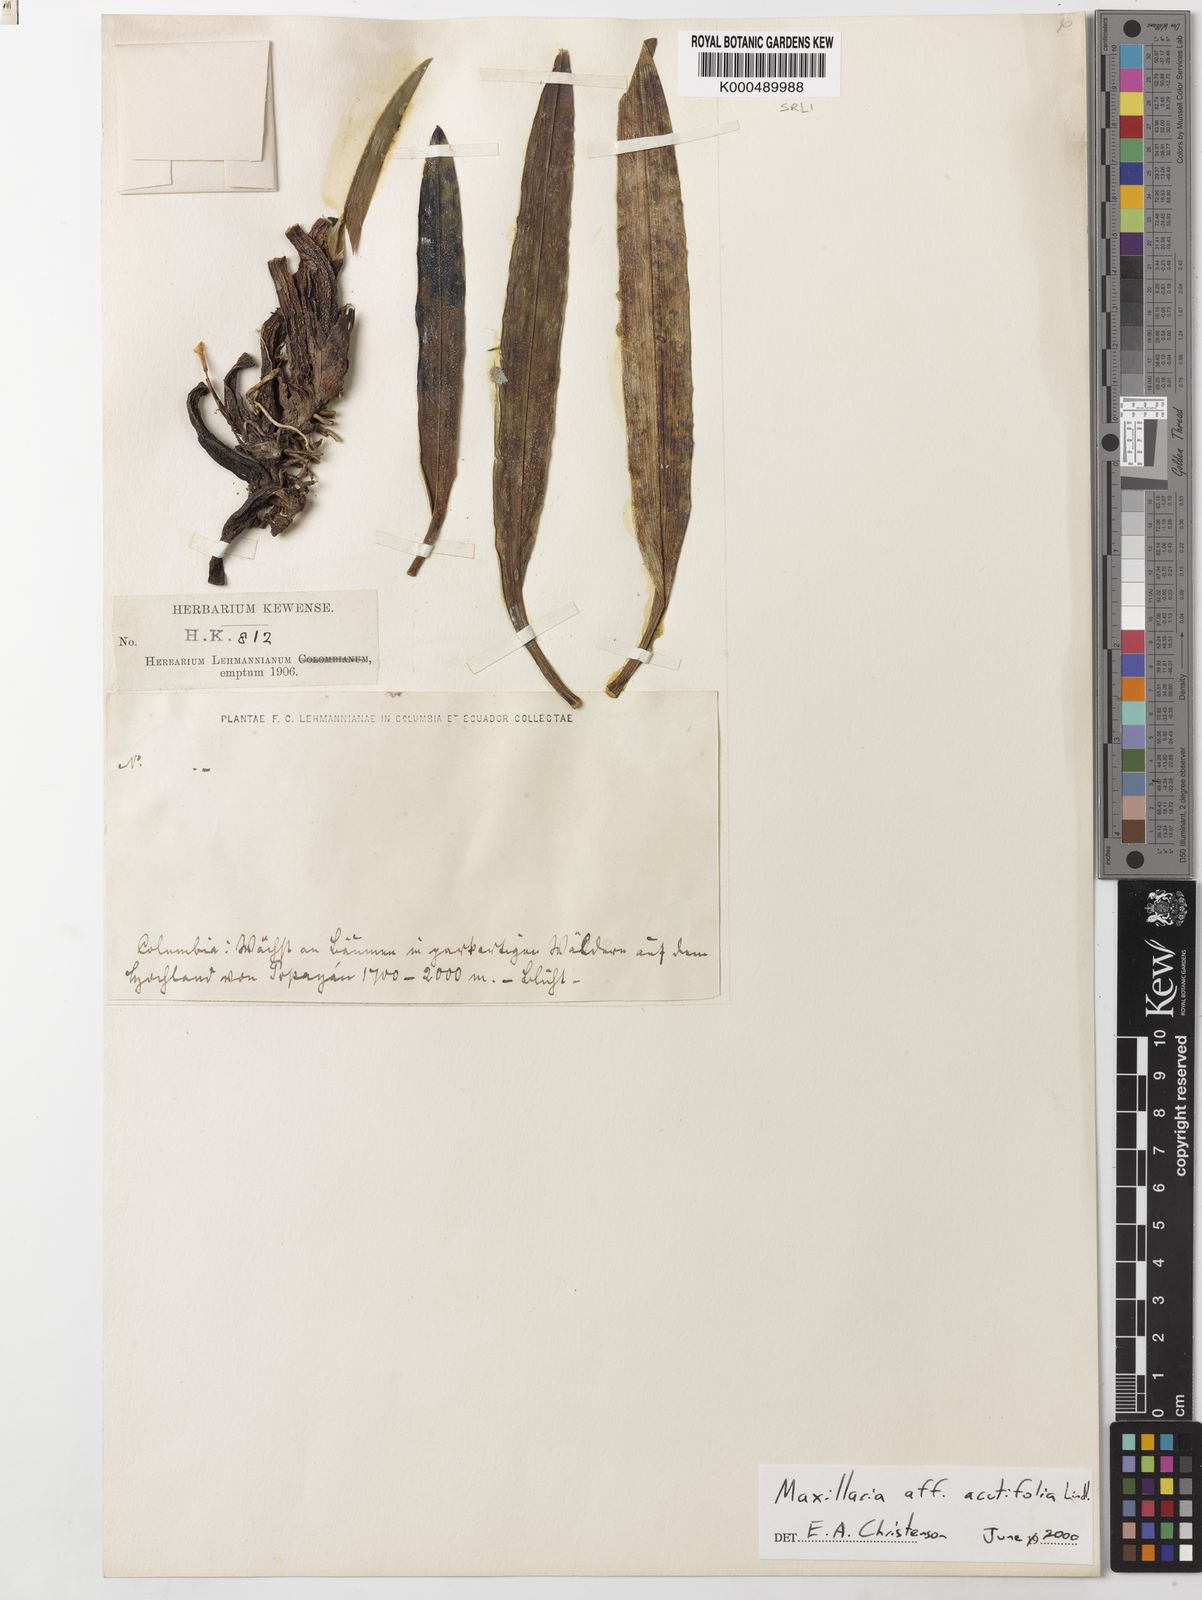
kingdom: Plantae
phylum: Tracheophyta
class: Liliopsida
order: Asparagales
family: Orchidaceae
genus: Maxillaria
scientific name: Maxillaria acutifolia
